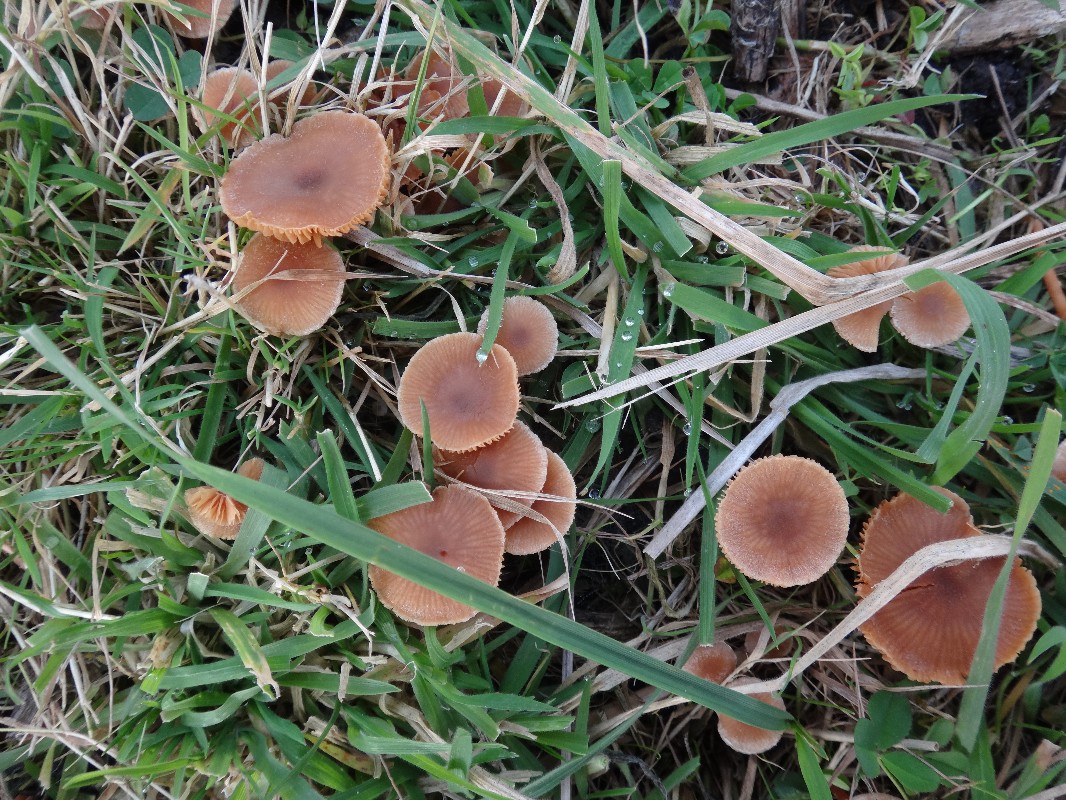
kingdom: Fungi
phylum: Basidiomycota
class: Agaricomycetes
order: Agaricales
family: Tubariaceae
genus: Tubaria
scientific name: Tubaria furfuracea
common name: kliddet fnughat
